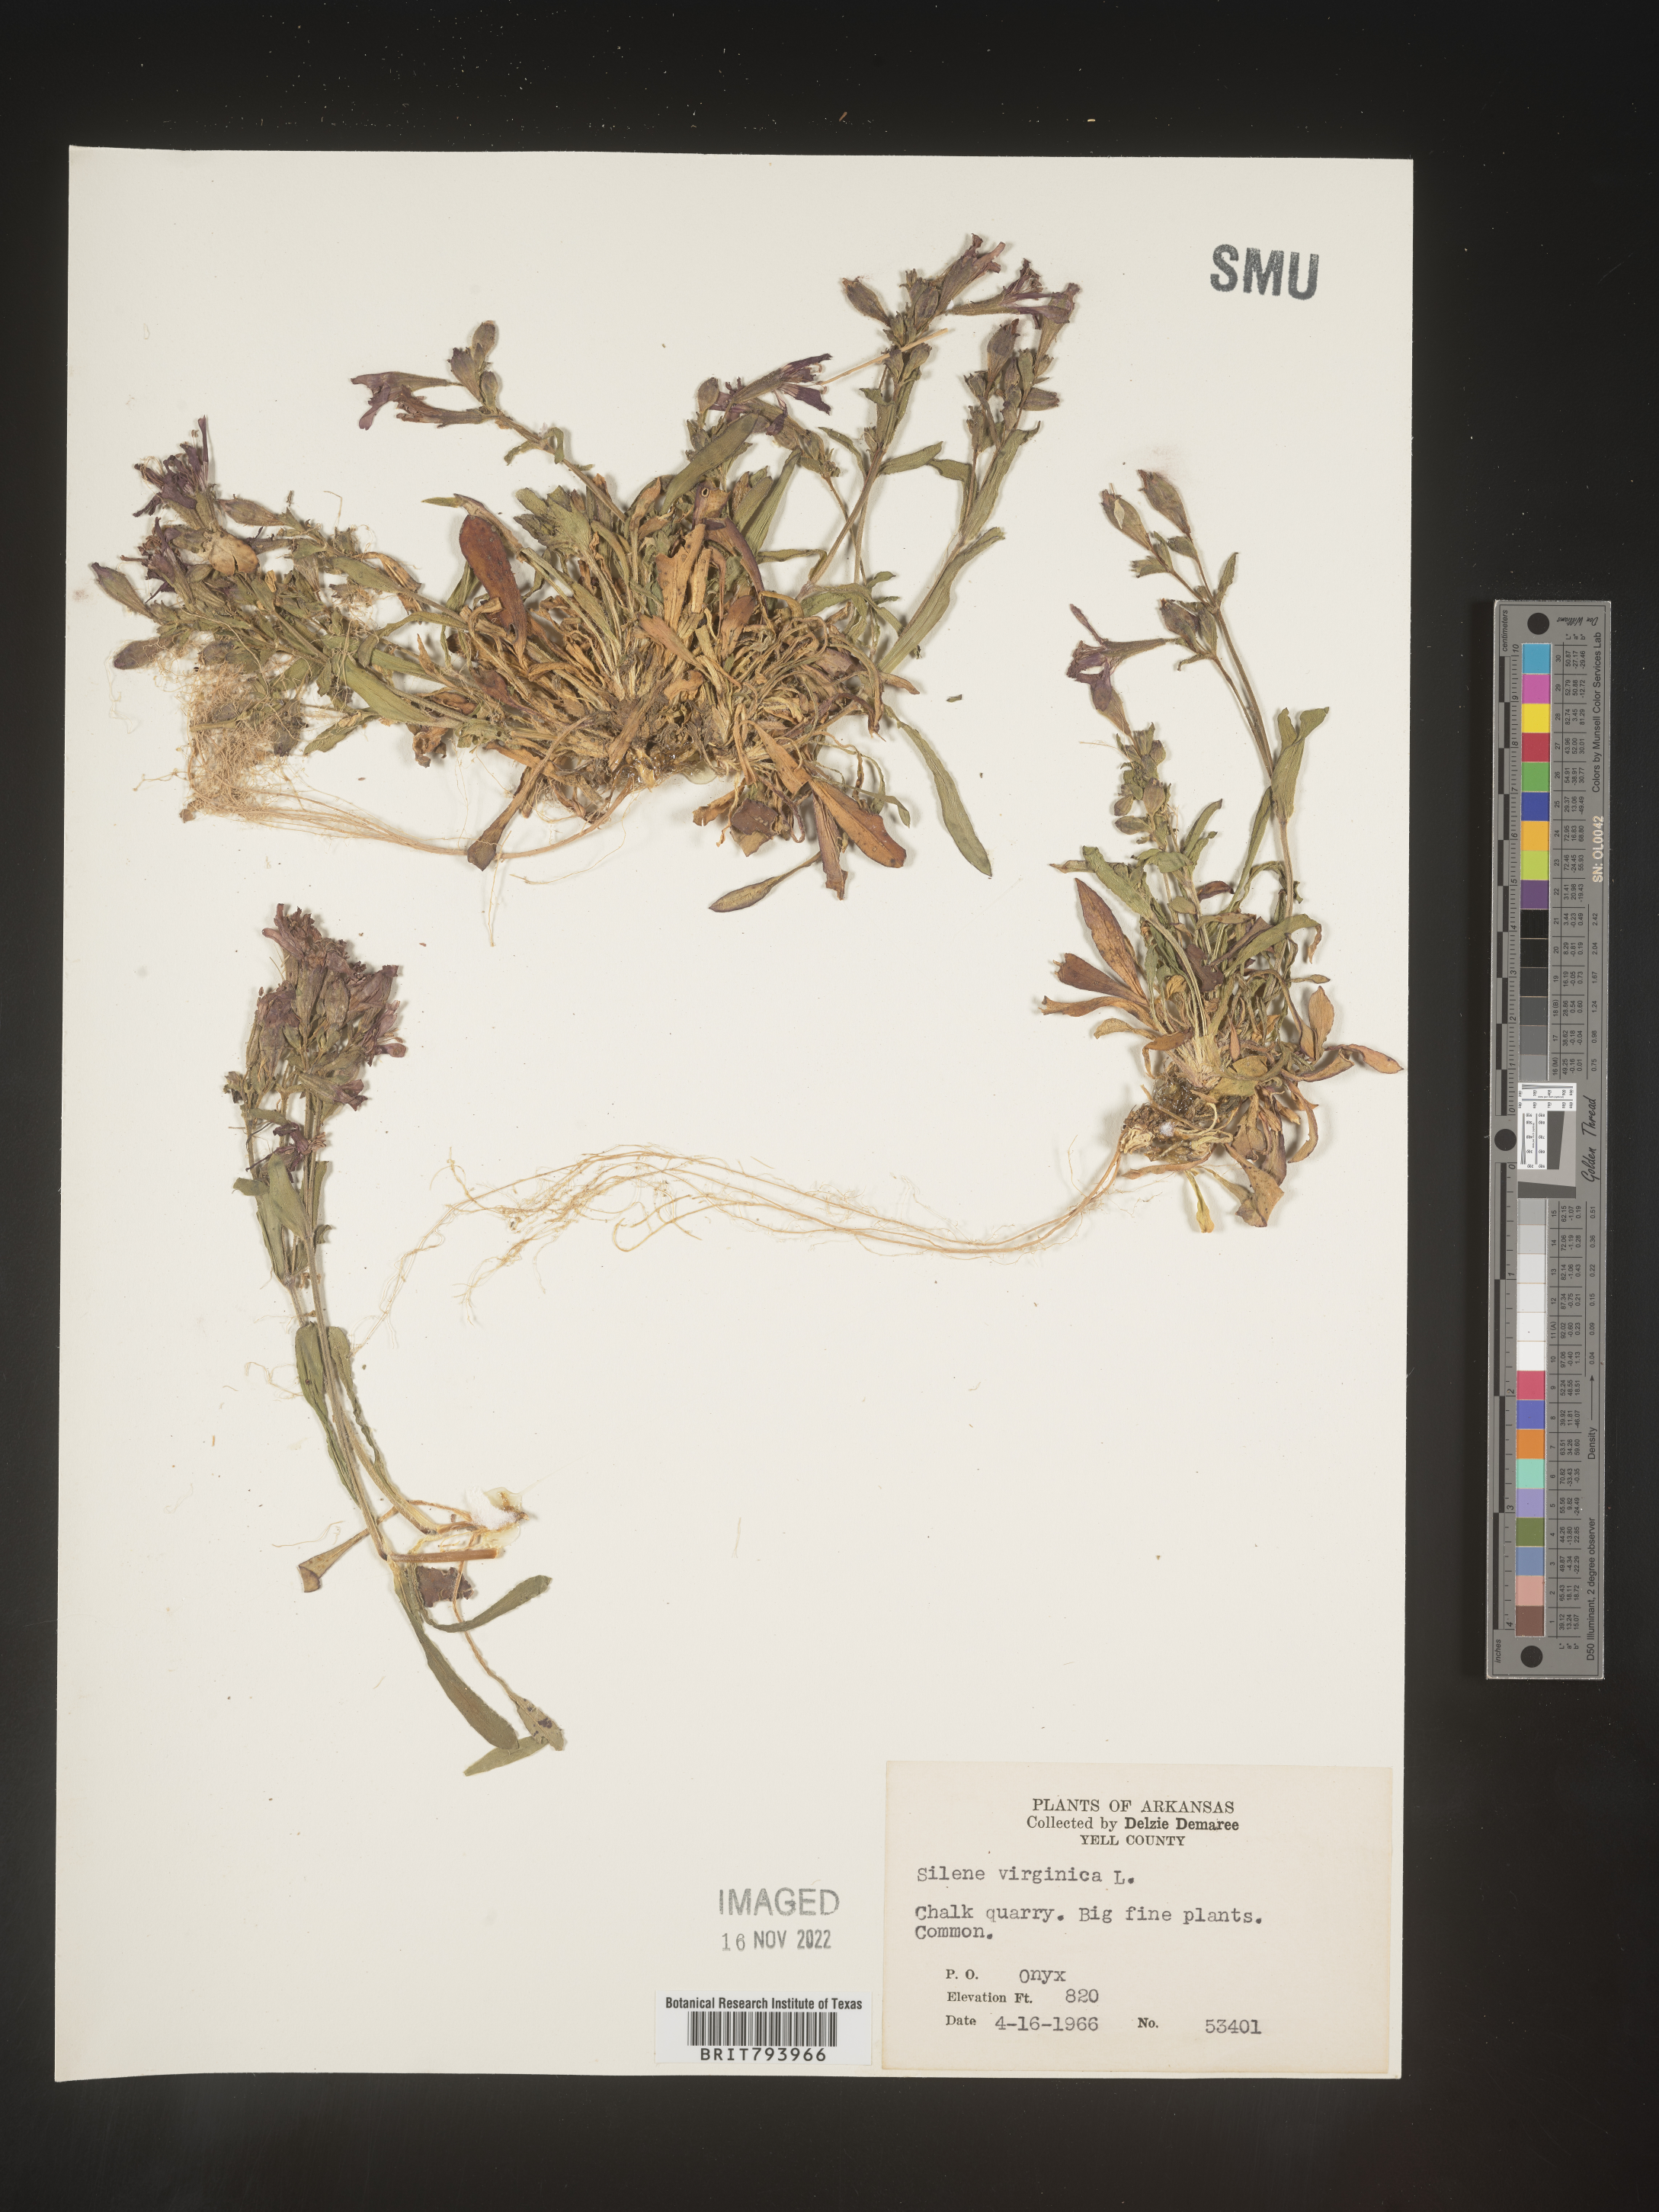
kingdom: Plantae
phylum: Tracheophyta
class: Magnoliopsida
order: Caryophyllales
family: Caryophyllaceae
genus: Silene
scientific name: Silene virginica
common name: Fire-pink
